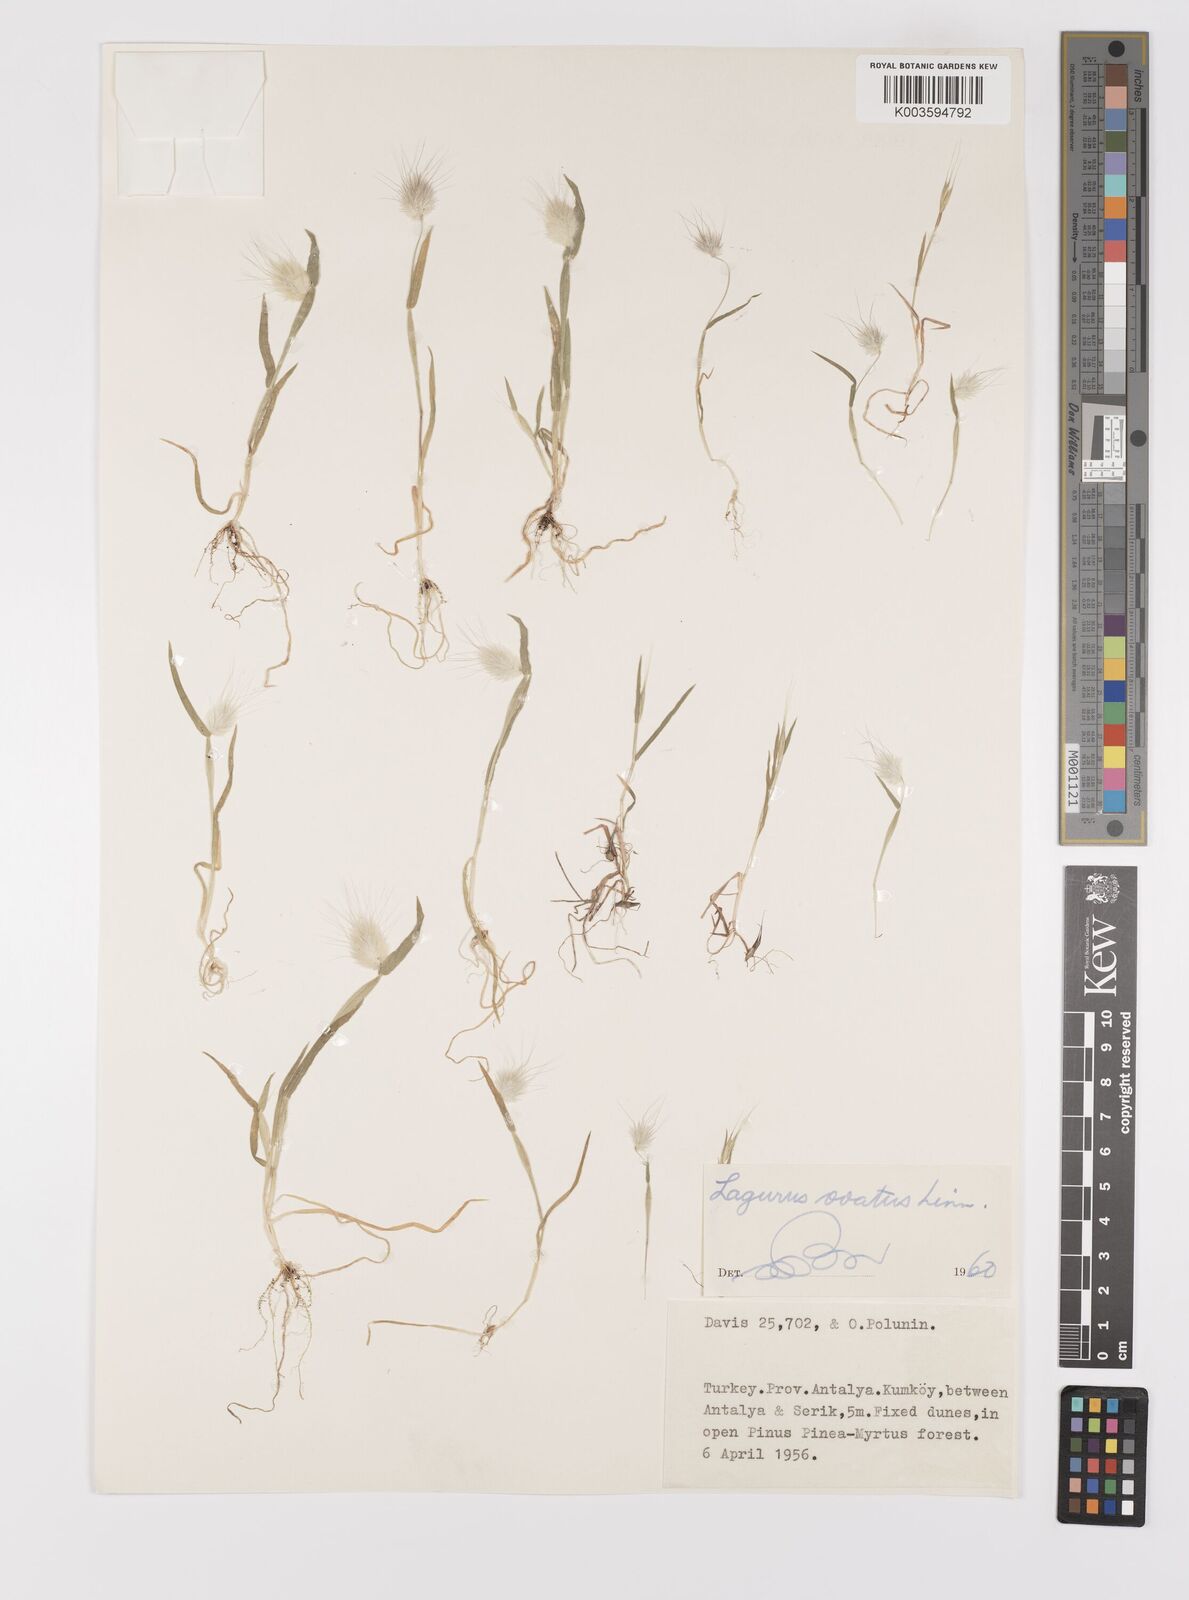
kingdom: Plantae
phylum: Tracheophyta
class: Liliopsida
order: Poales
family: Poaceae
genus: Lagurus
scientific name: Lagurus ovatus
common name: Hare's-tail
